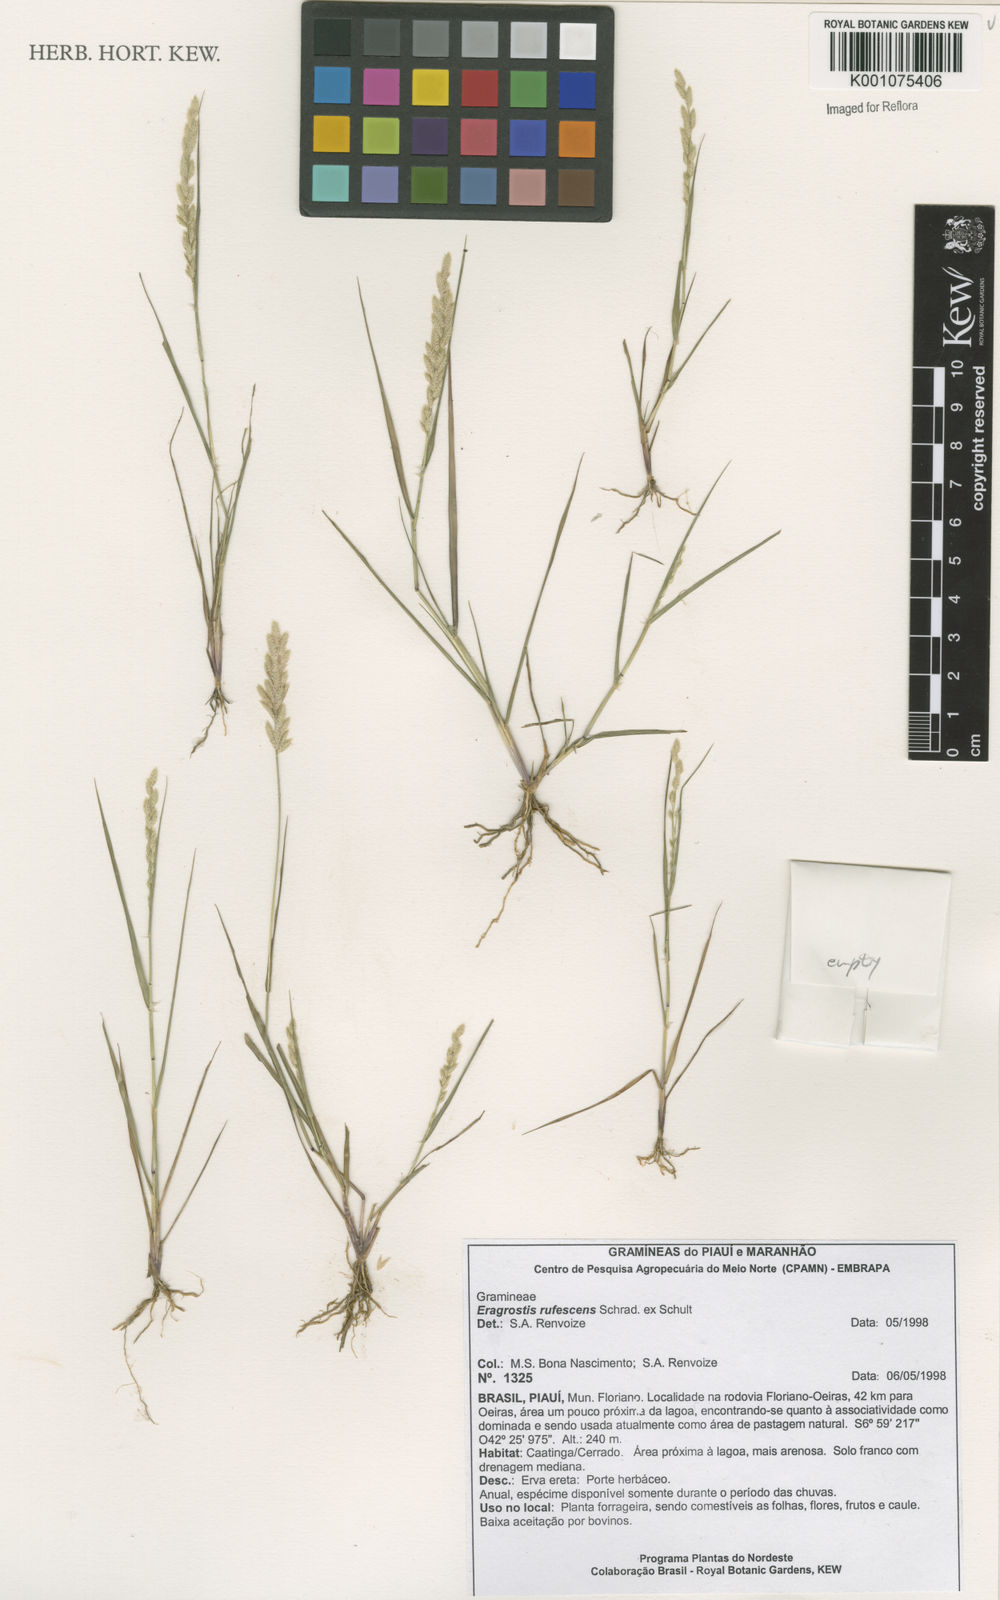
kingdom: Plantae
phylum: Tracheophyta
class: Liliopsida
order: Poales
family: Poaceae
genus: Eragrostis
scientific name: Eragrostis rufescens
